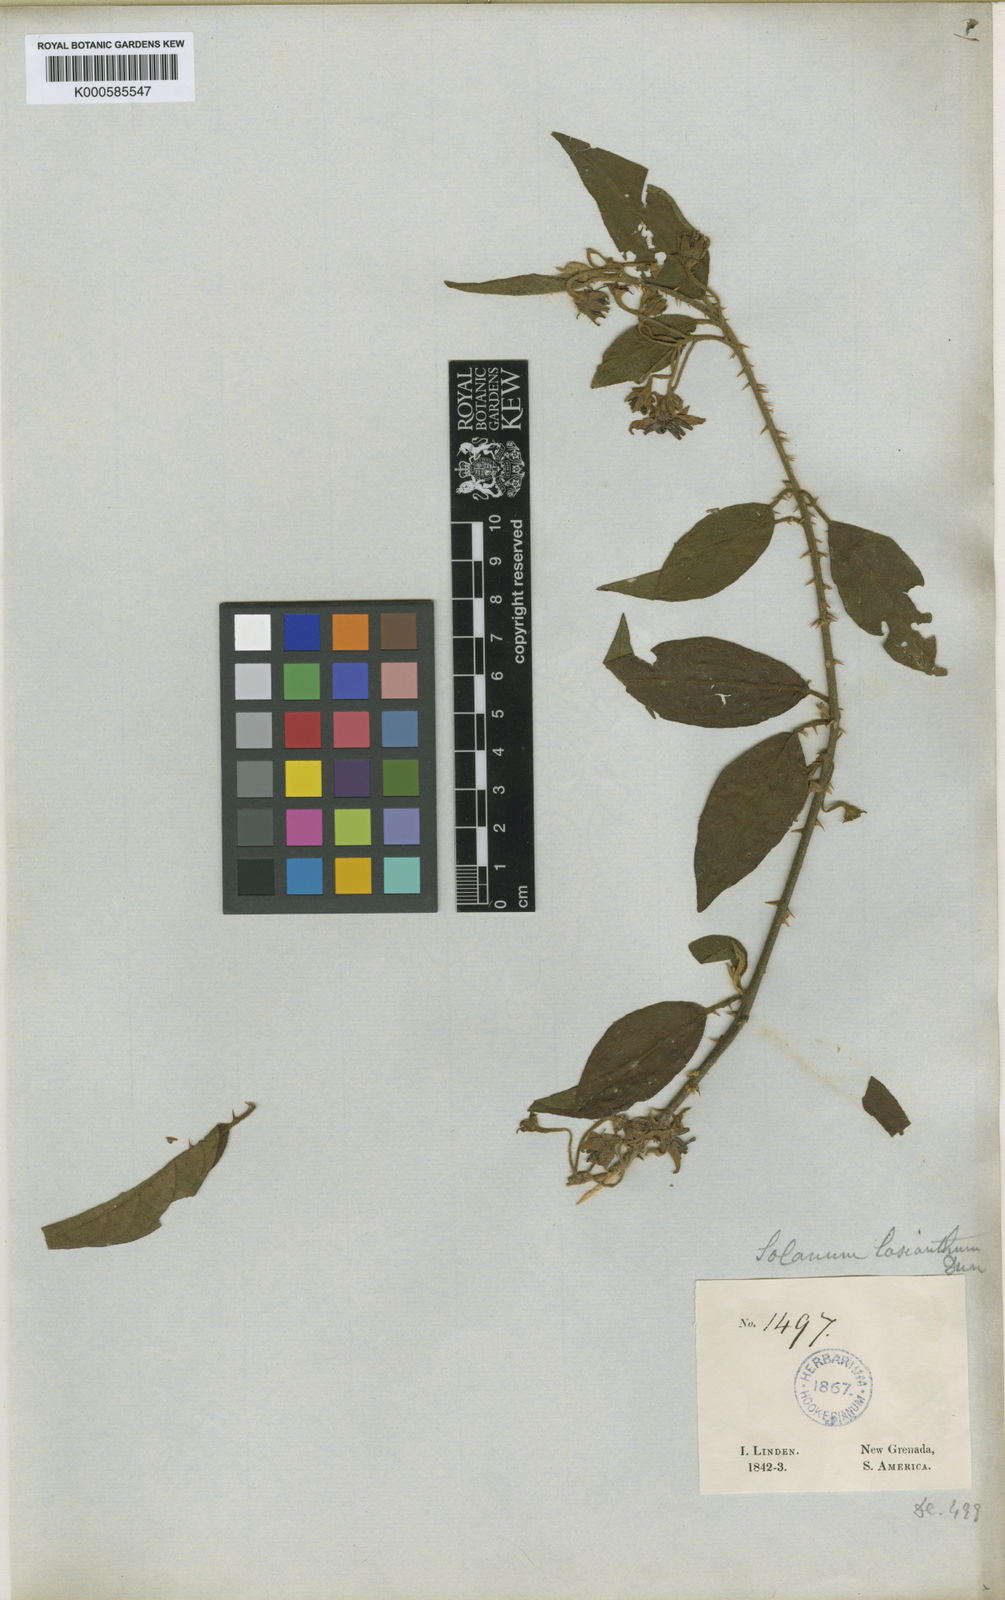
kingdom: Plantae
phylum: Tracheophyta
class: Magnoliopsida
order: Solanales
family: Solanaceae
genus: Solanum
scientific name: Solanum lanceifolium
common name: Lanceleaf nightshade
